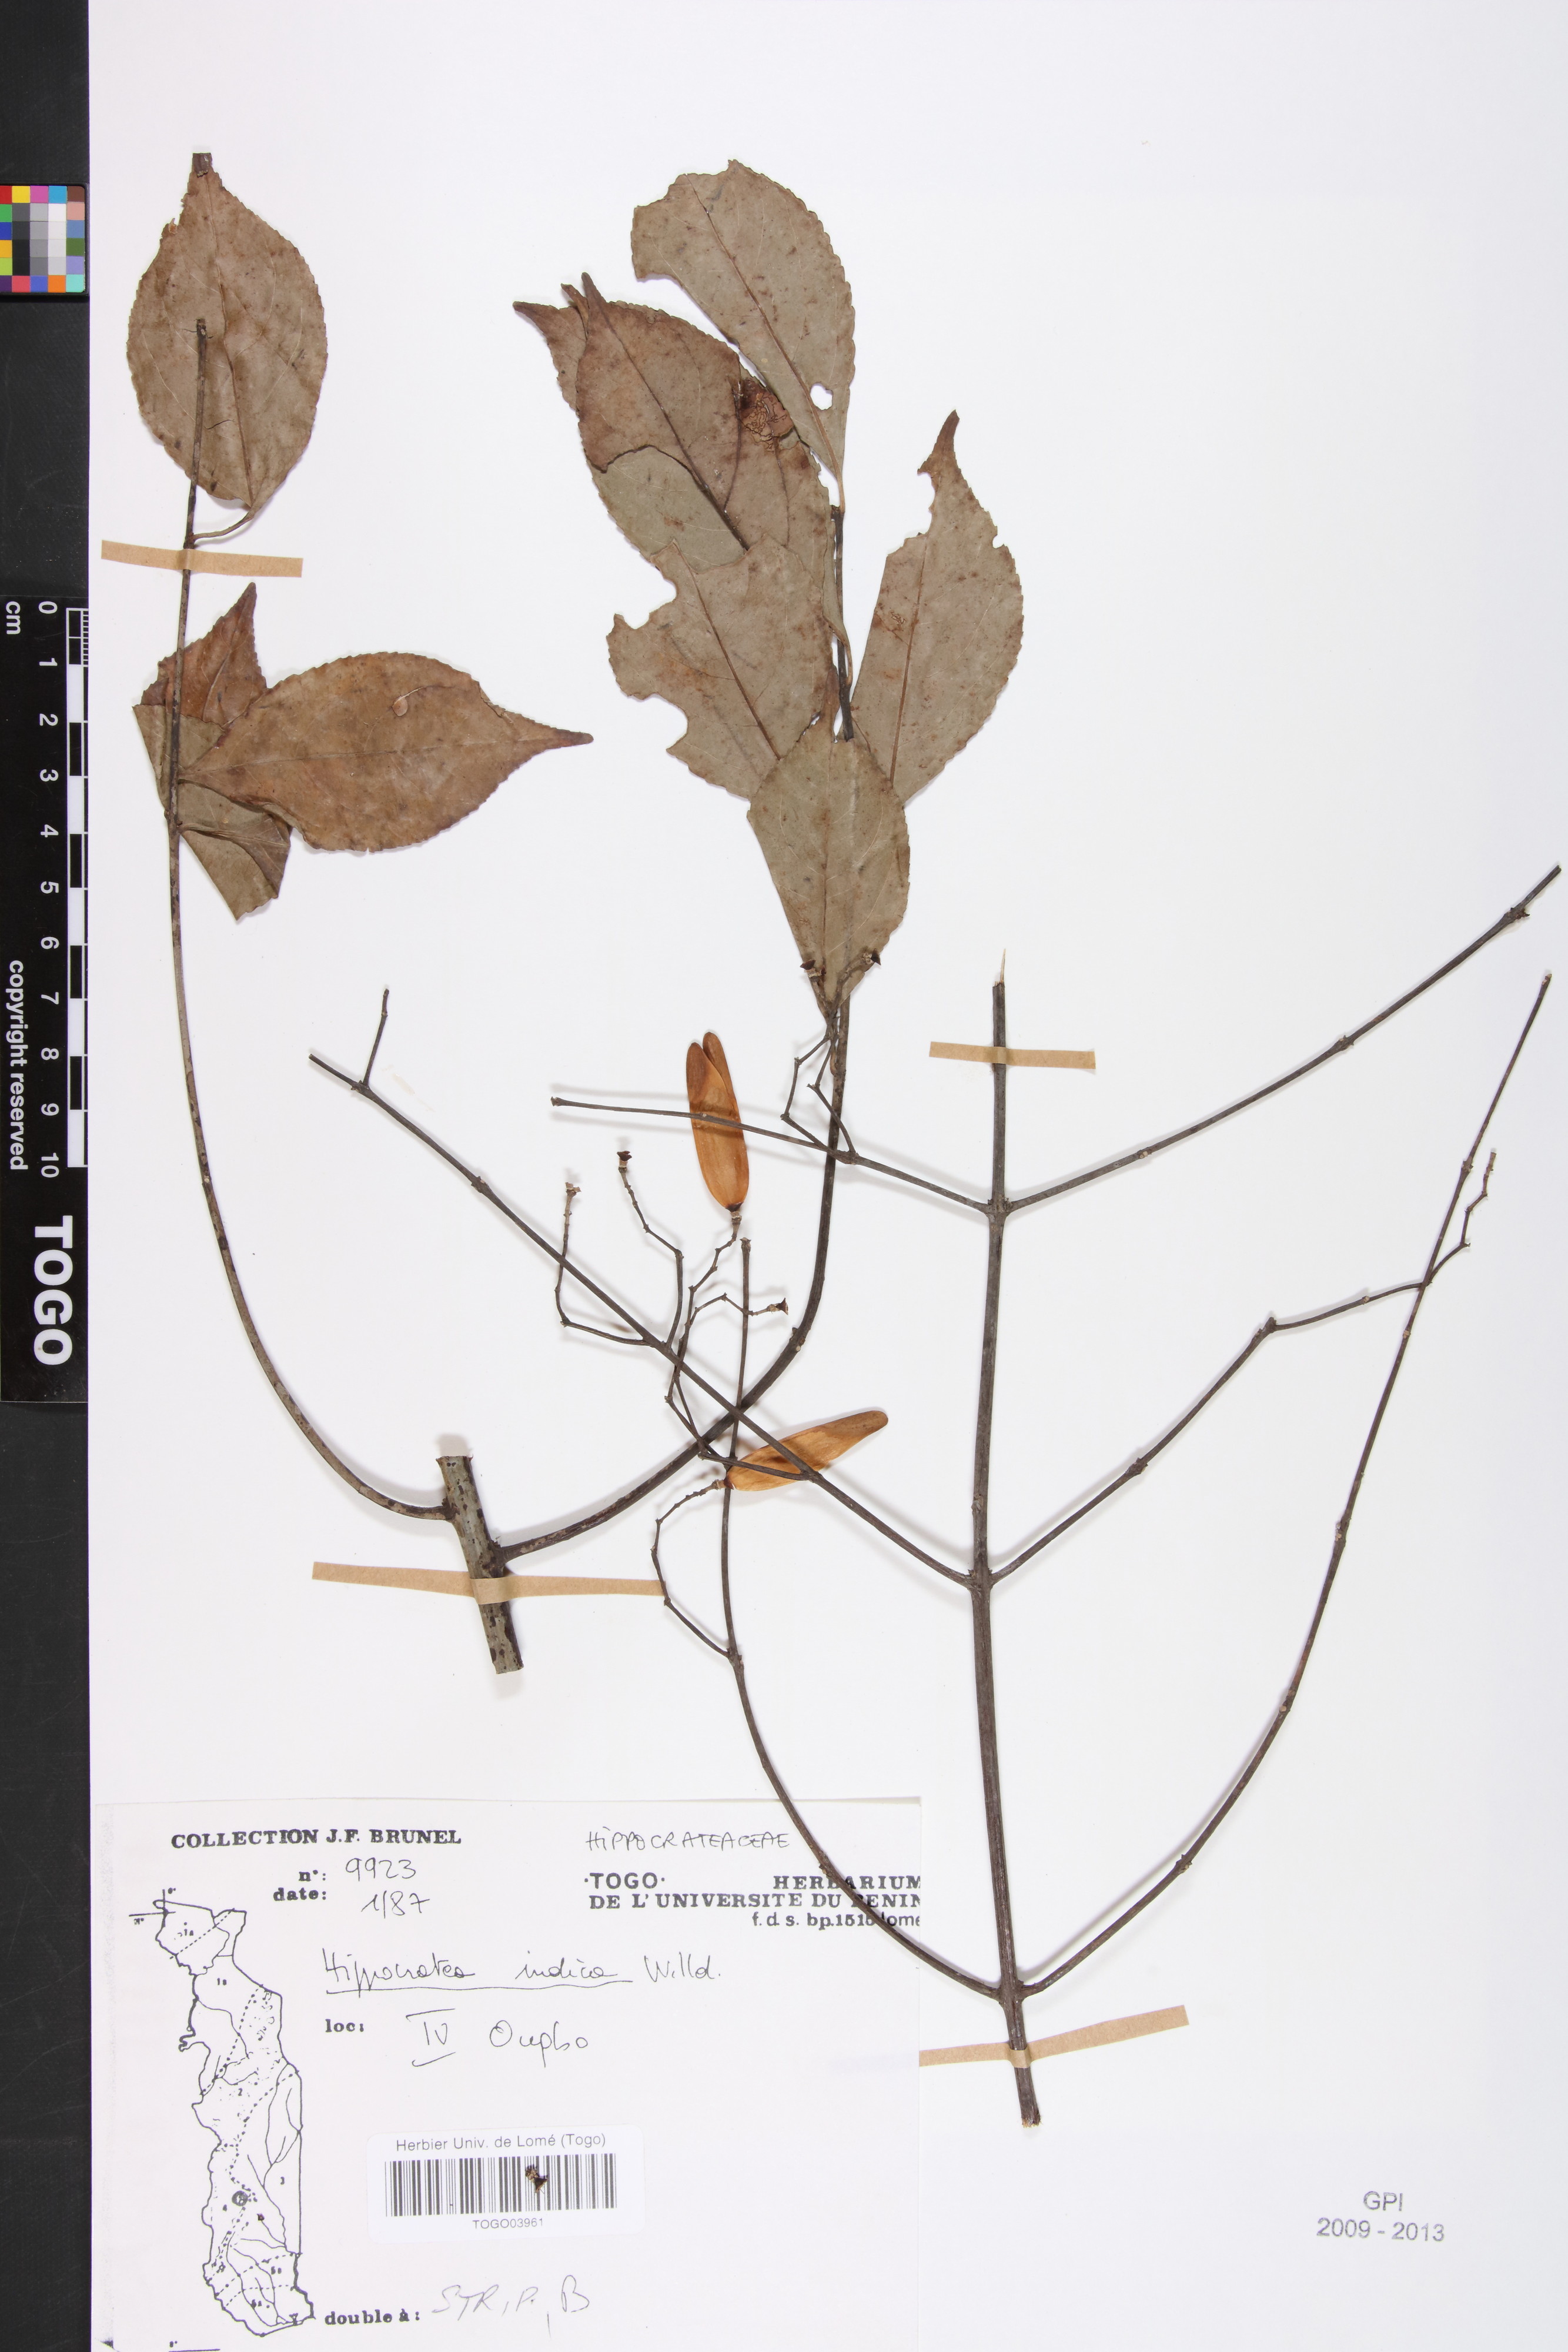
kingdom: Plantae
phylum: Tracheophyta
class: Magnoliopsida
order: Celastrales
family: Celastraceae
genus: Reissantia
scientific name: Reissantia indica
